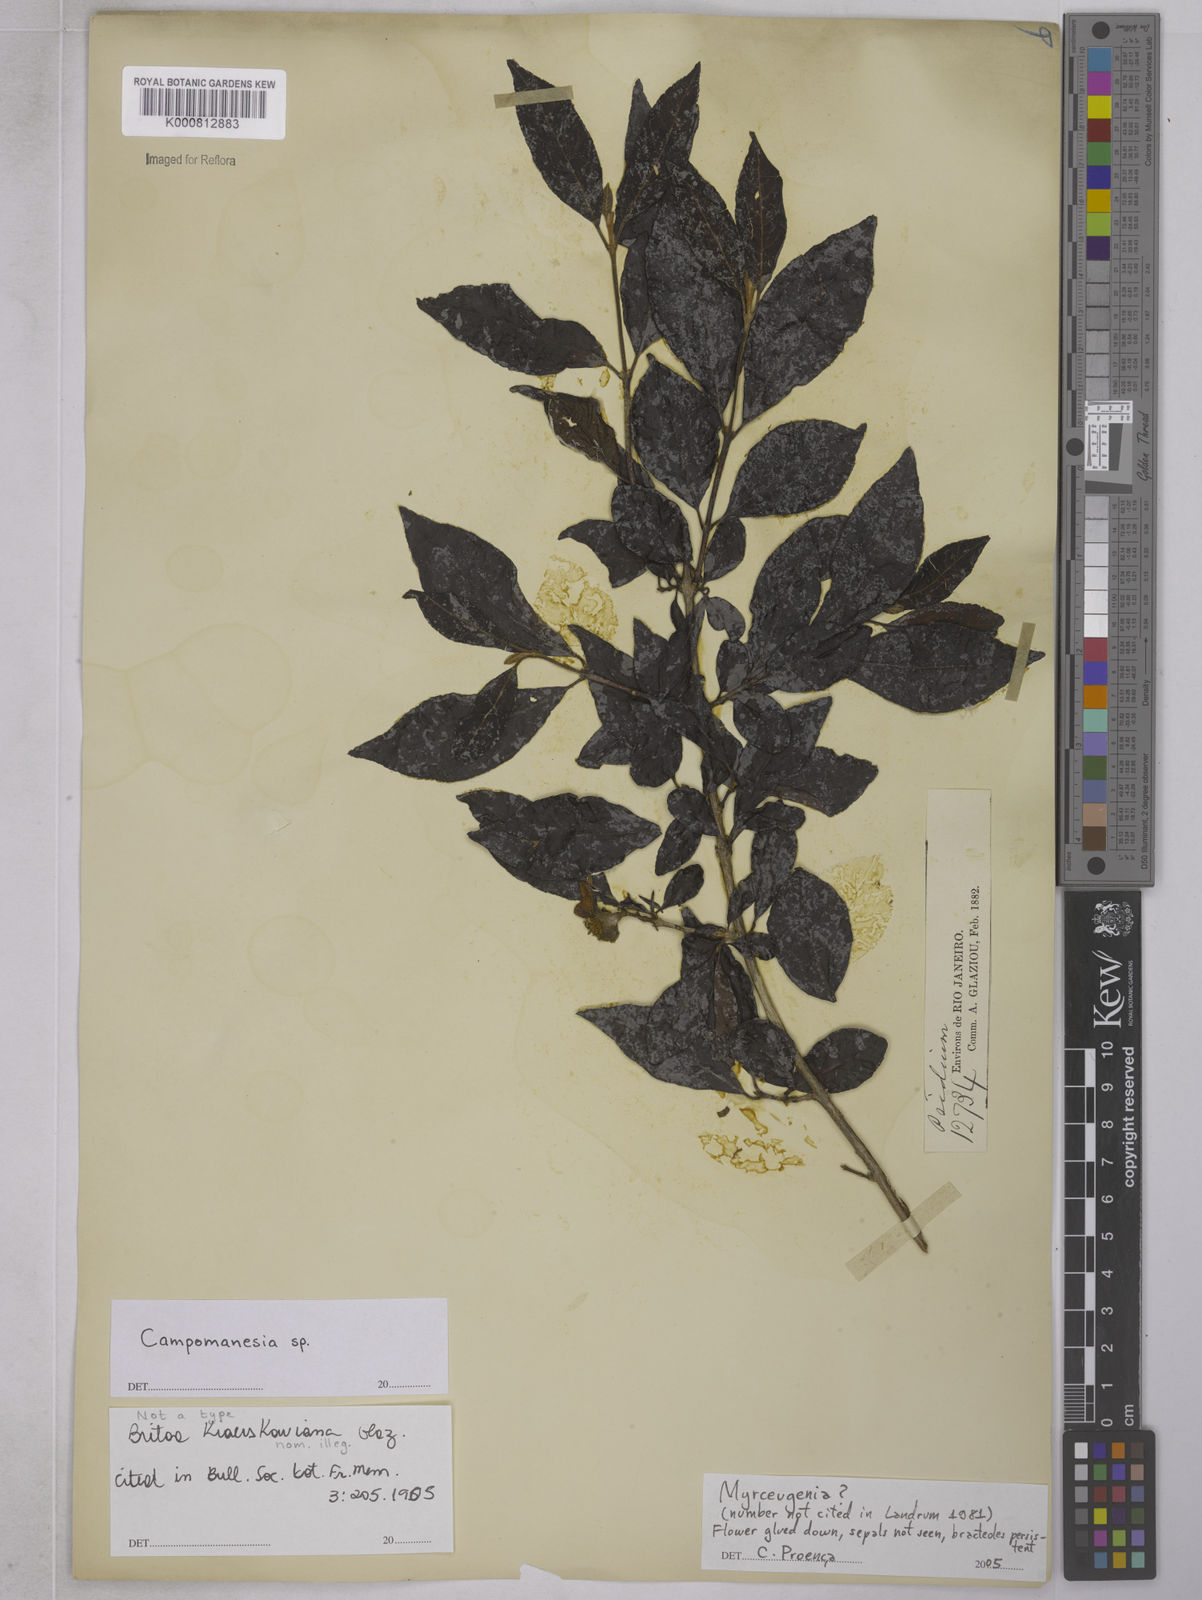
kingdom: Plantae
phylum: Tracheophyta
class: Magnoliopsida
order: Myrtales
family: Myrtaceae
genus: Campomanesia
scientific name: Campomanesia
